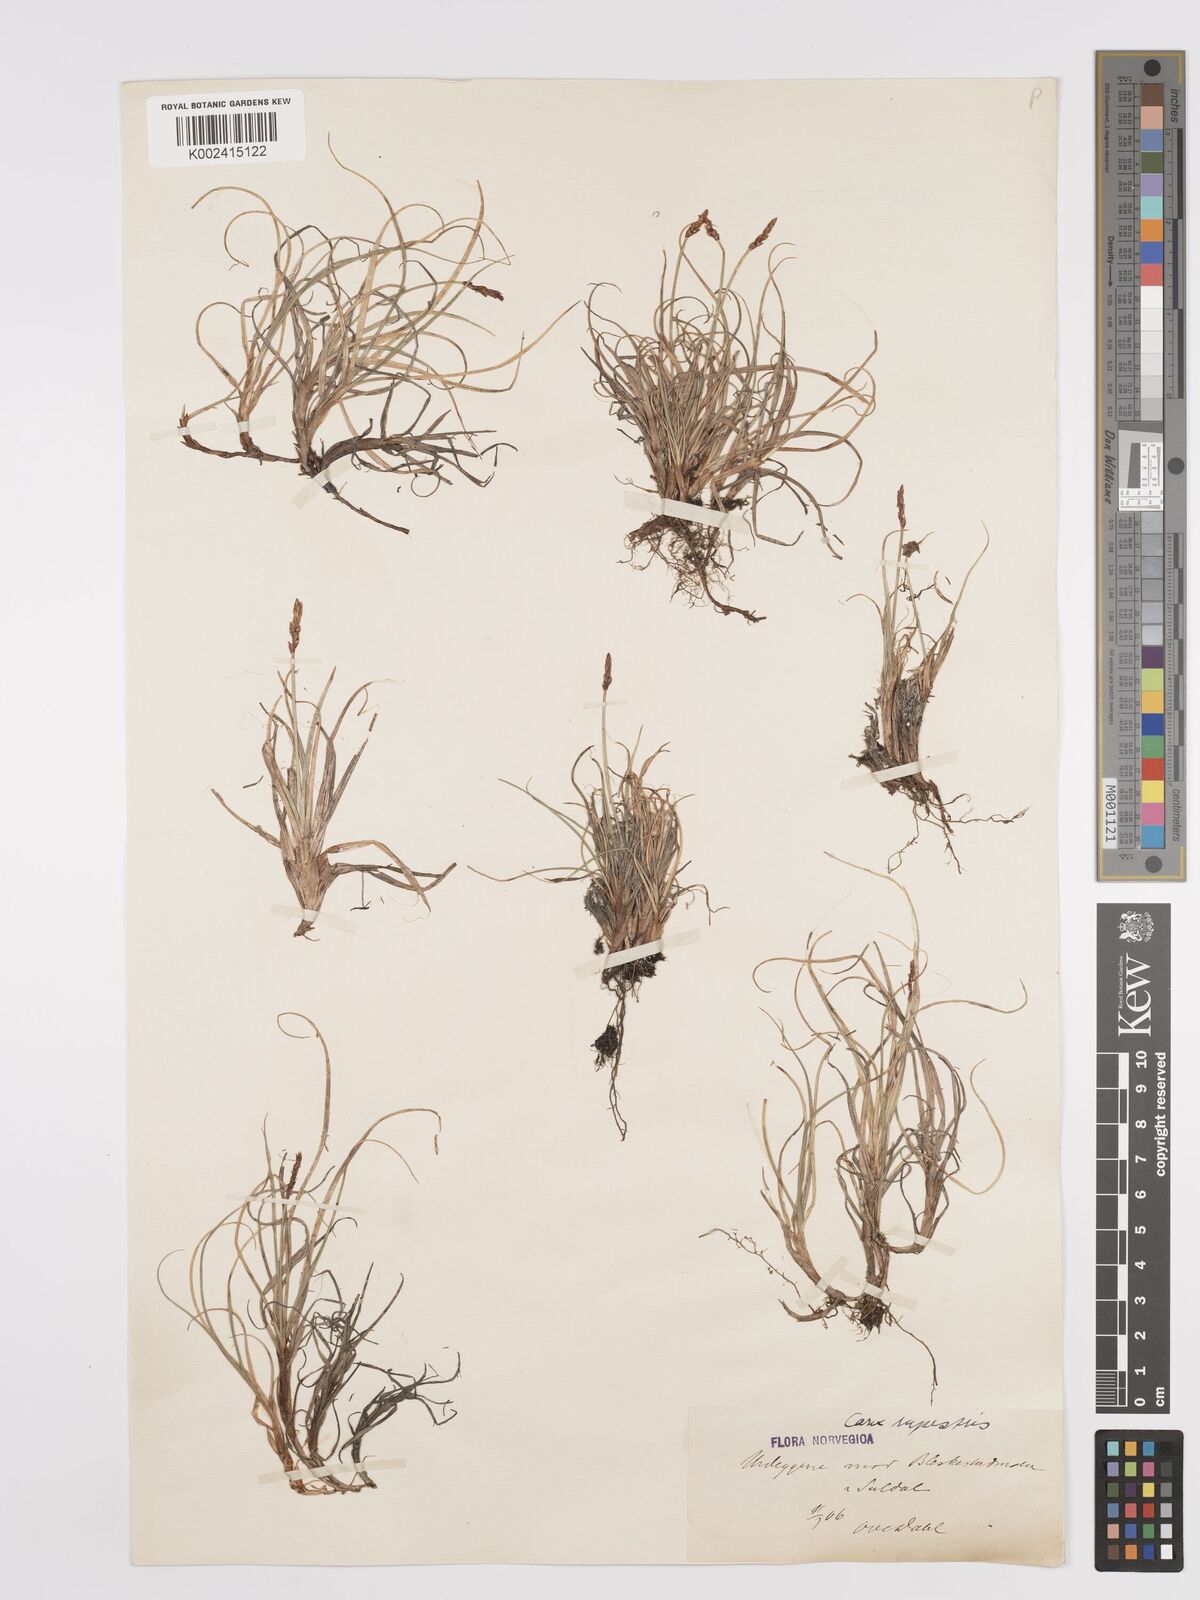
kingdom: Plantae
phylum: Tracheophyta
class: Liliopsida
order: Poales
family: Cyperaceae
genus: Carex
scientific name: Carex rupestris
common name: Rock sedge
